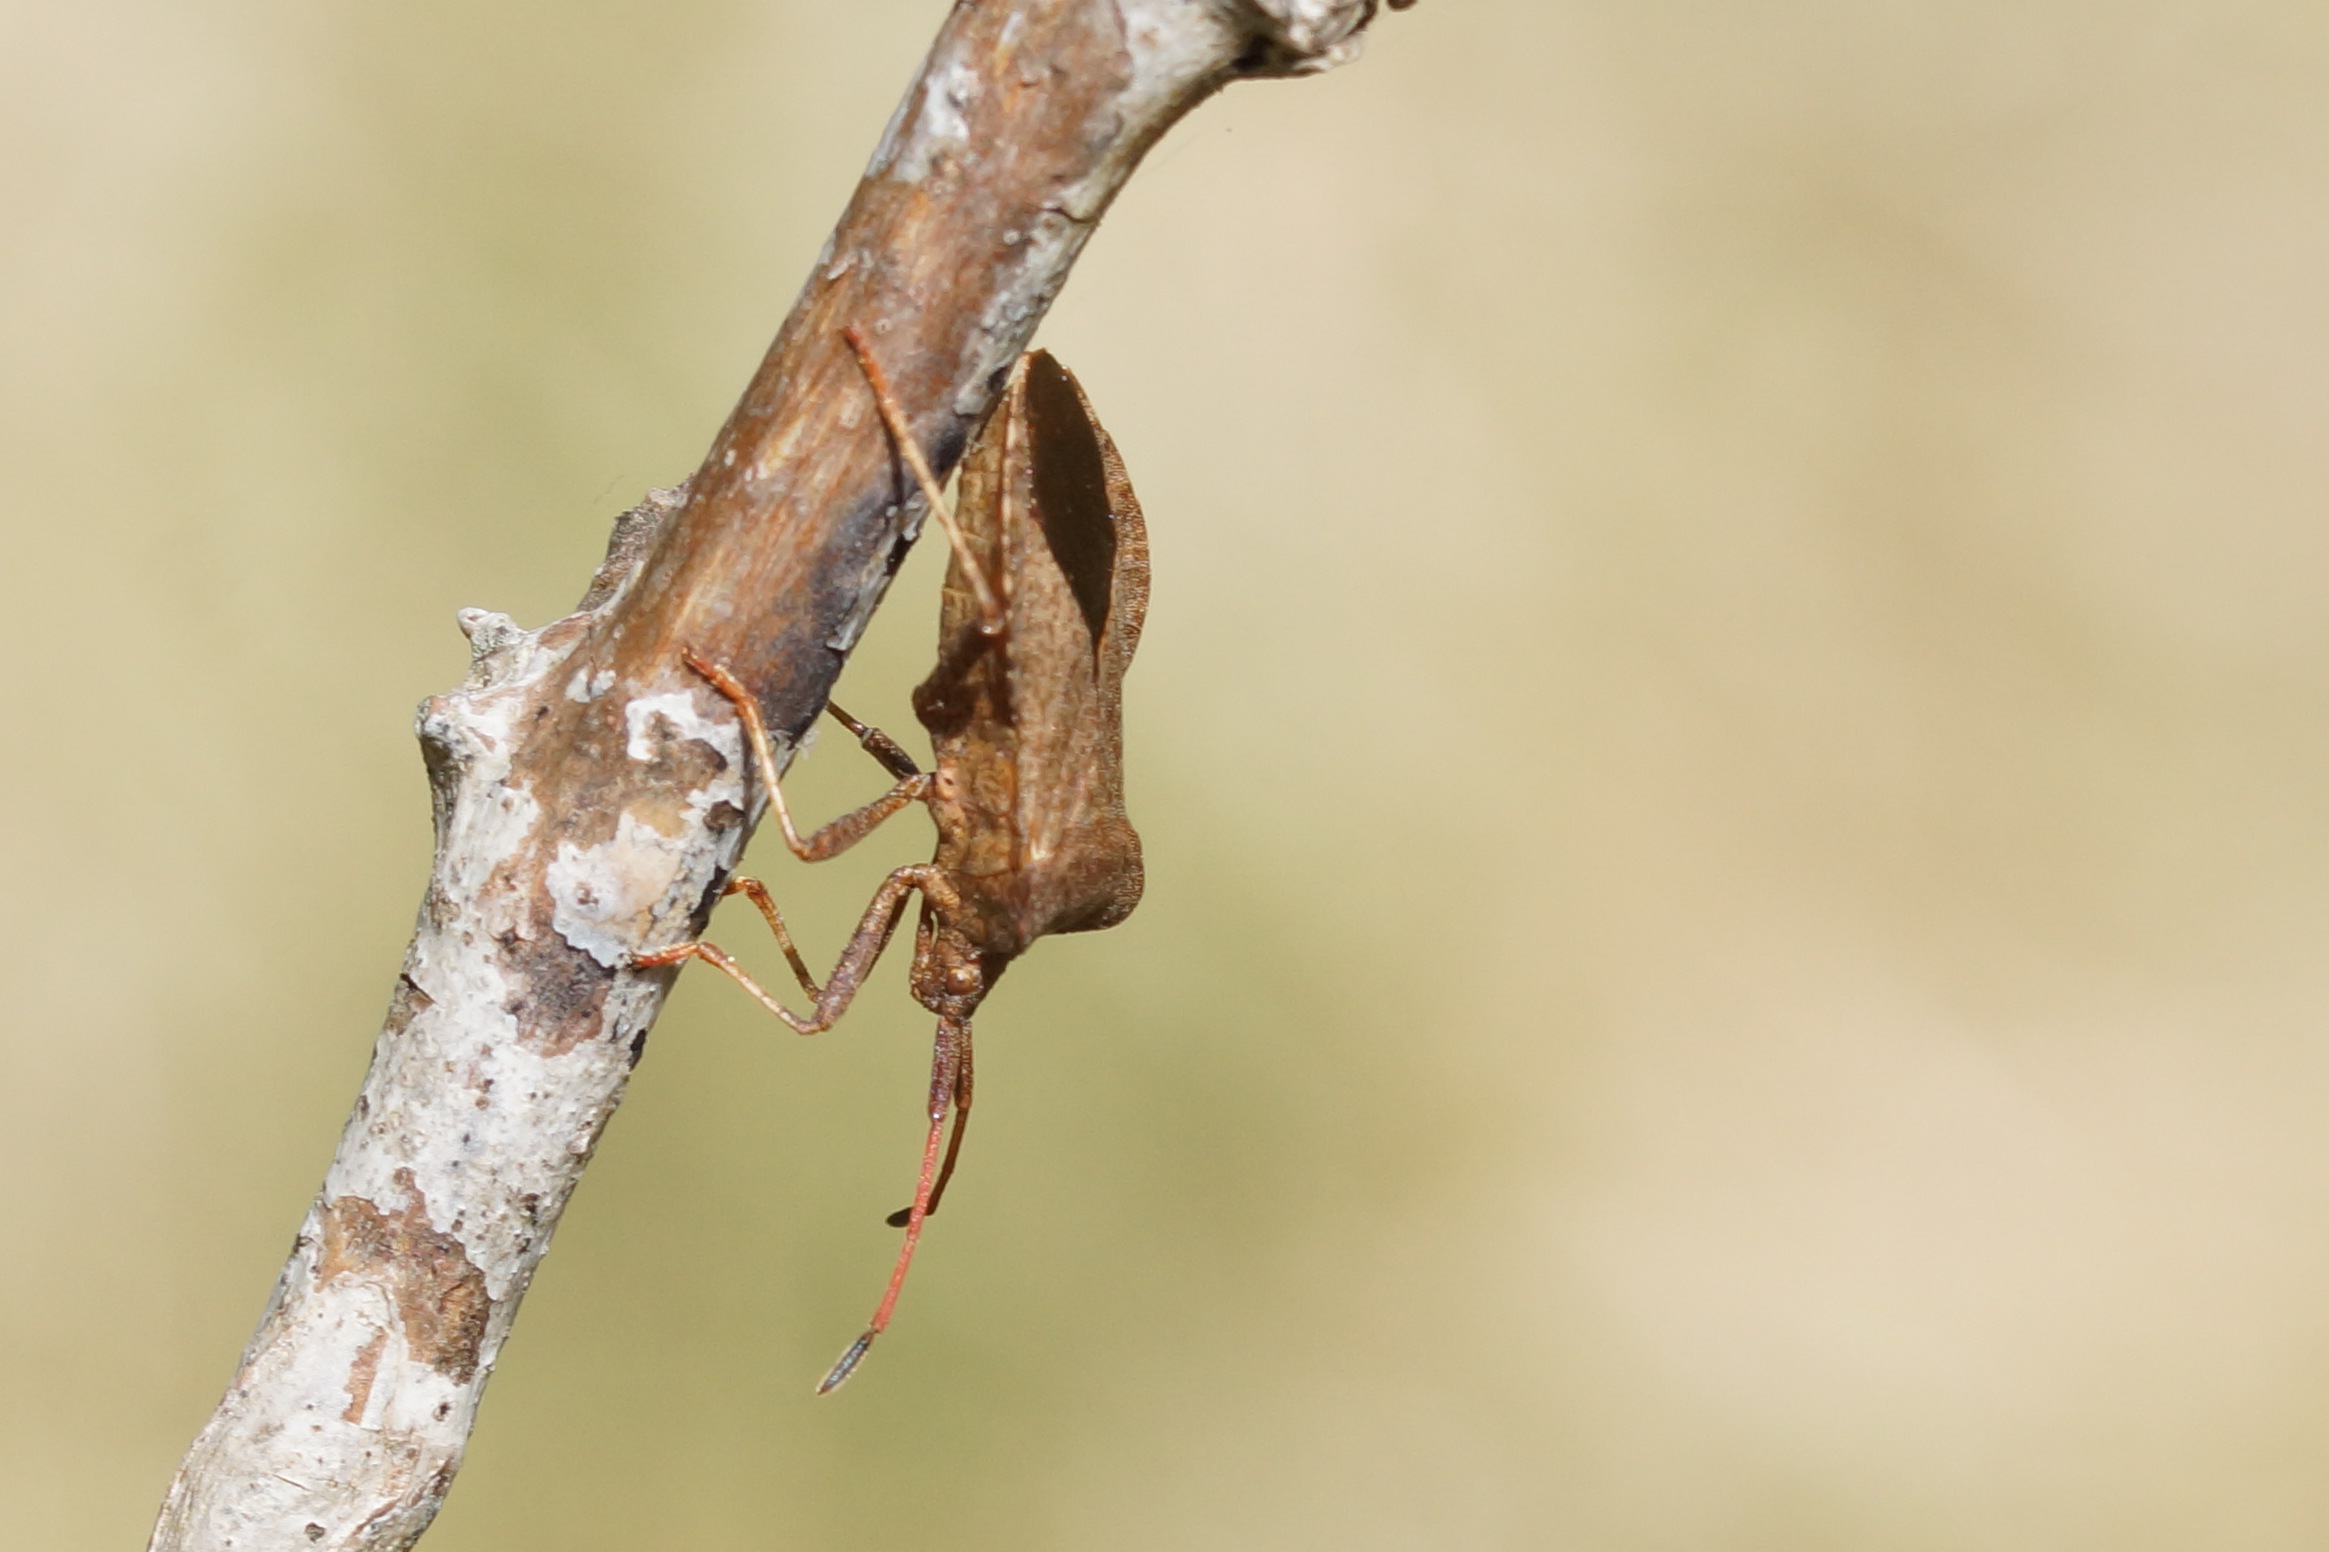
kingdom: Animalia
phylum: Arthropoda
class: Insecta
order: Hemiptera
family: Coreidae
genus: Coreus
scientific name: Coreus marginatus
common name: Skræppetæge
